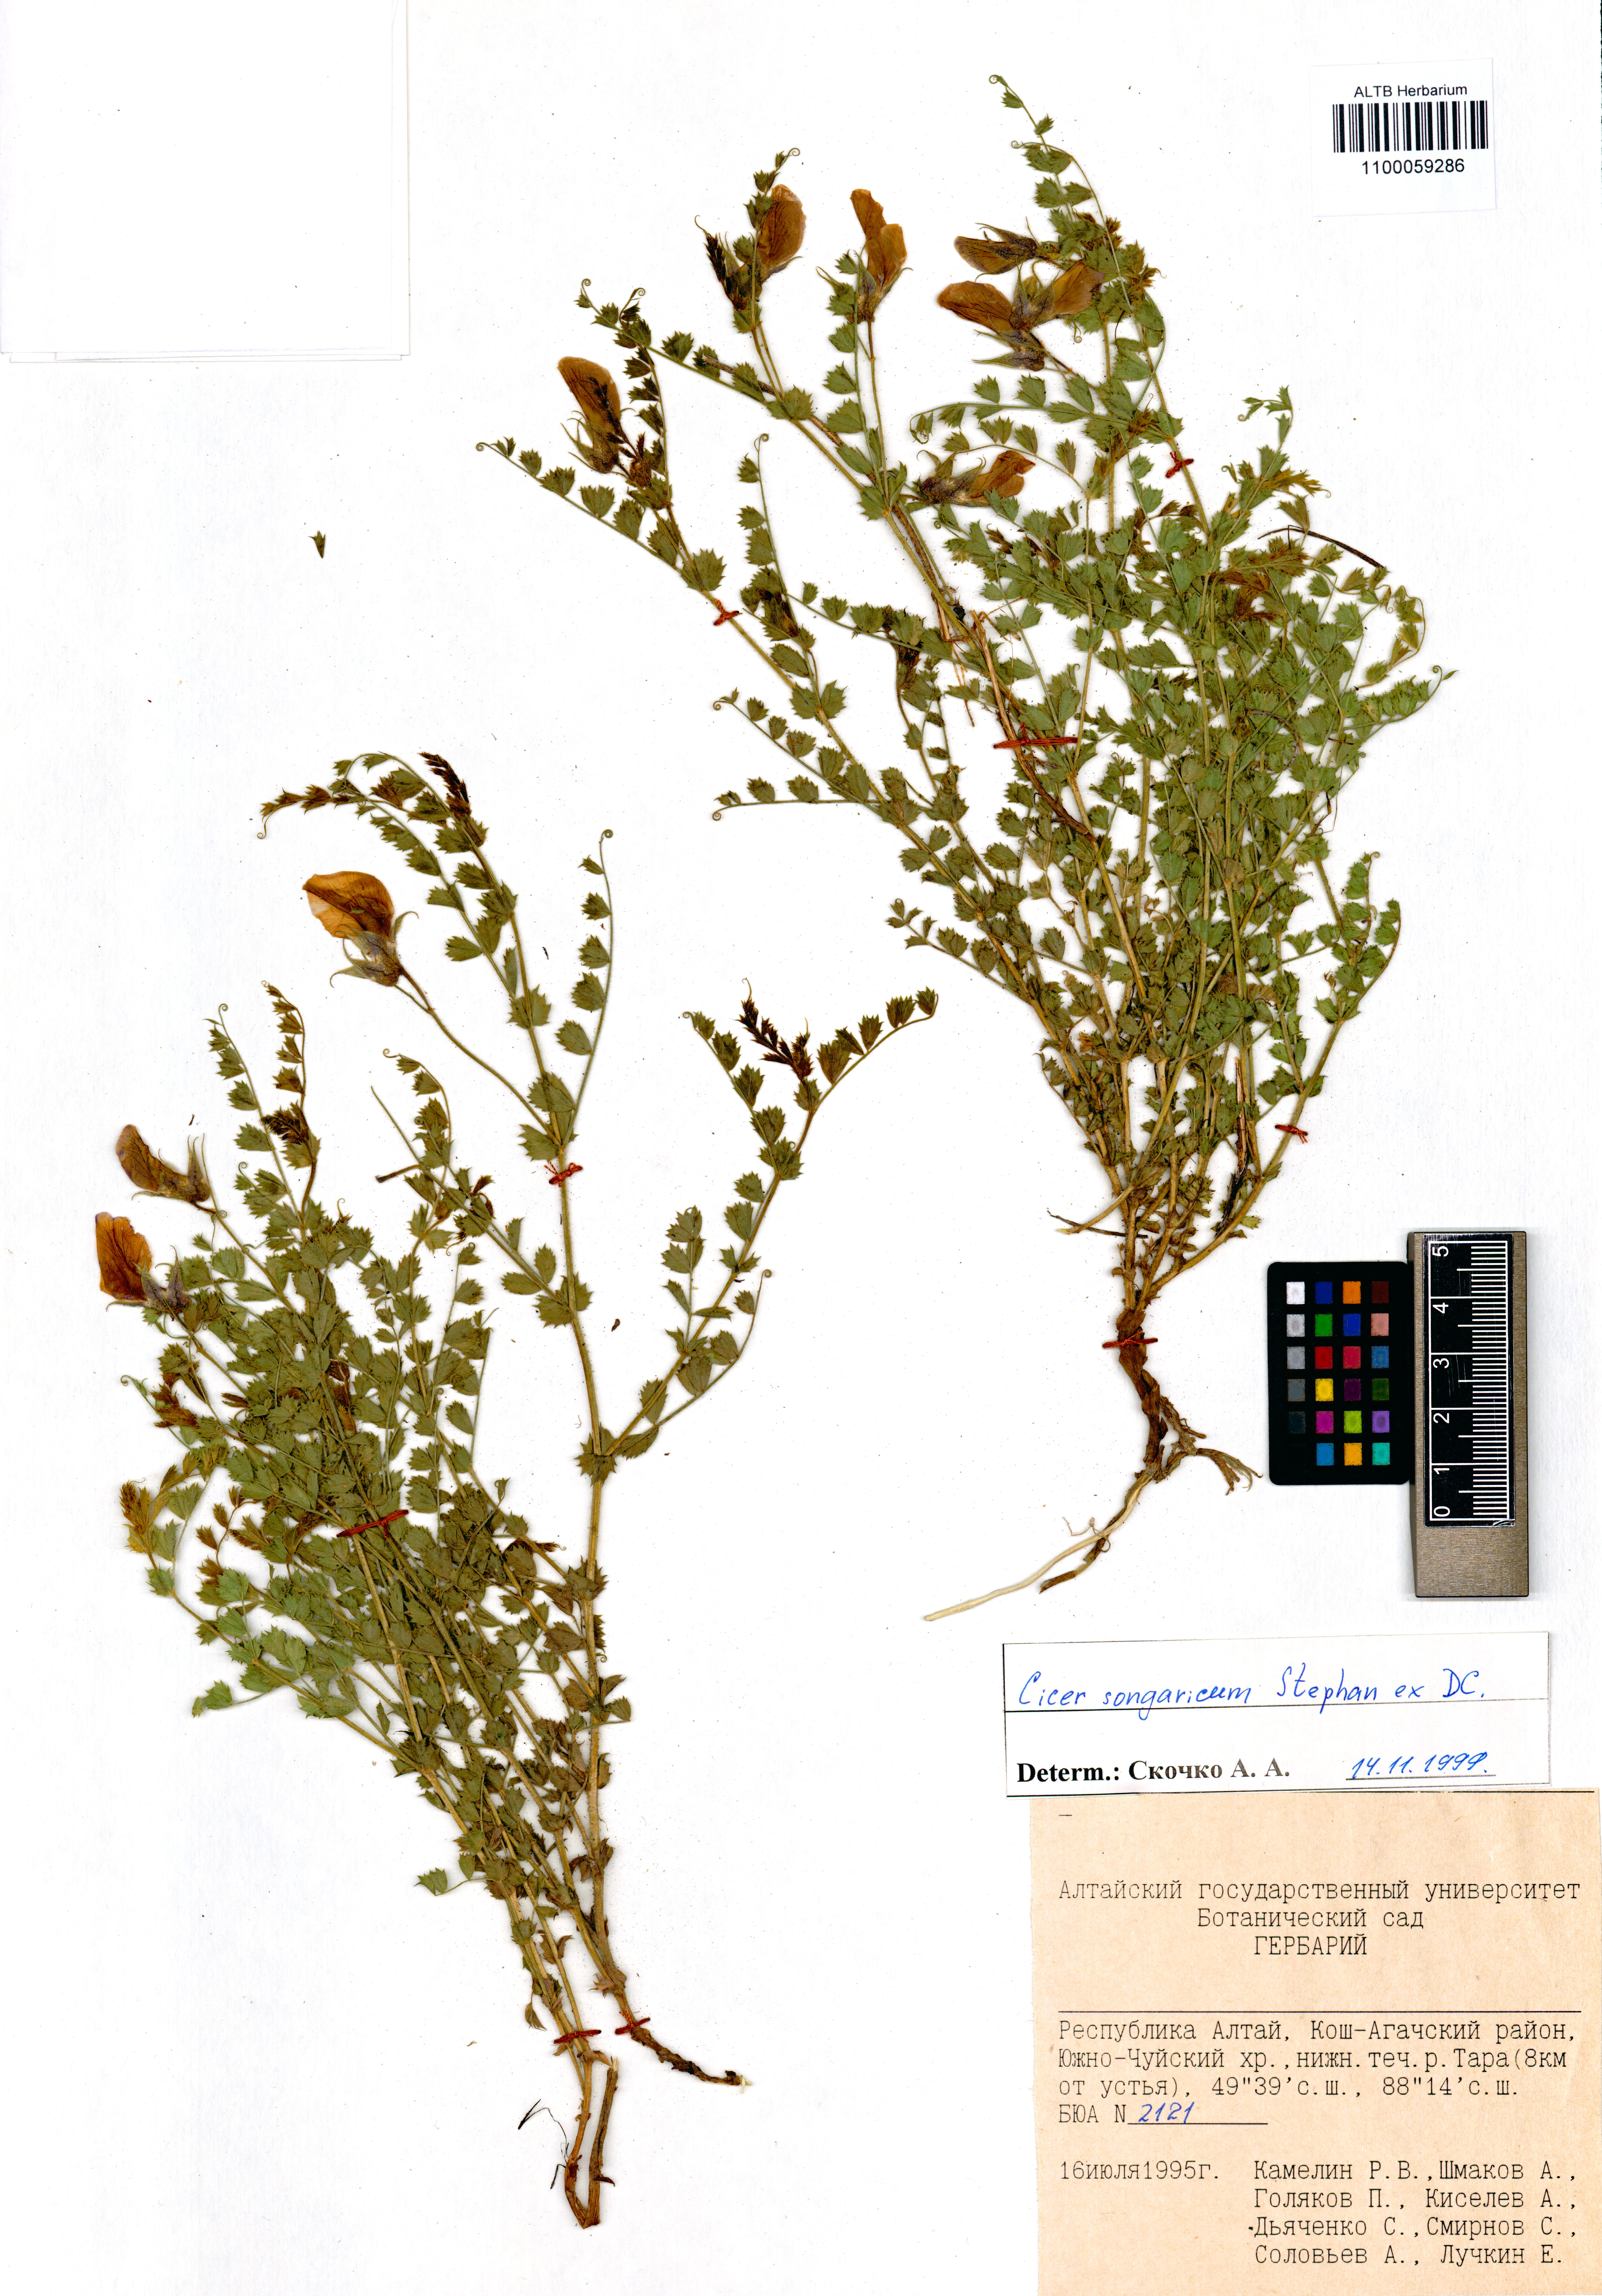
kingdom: Plantae
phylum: Tracheophyta
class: Magnoliopsida
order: Fabales
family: Fabaceae
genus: Cicer
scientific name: Cicer songaricum
